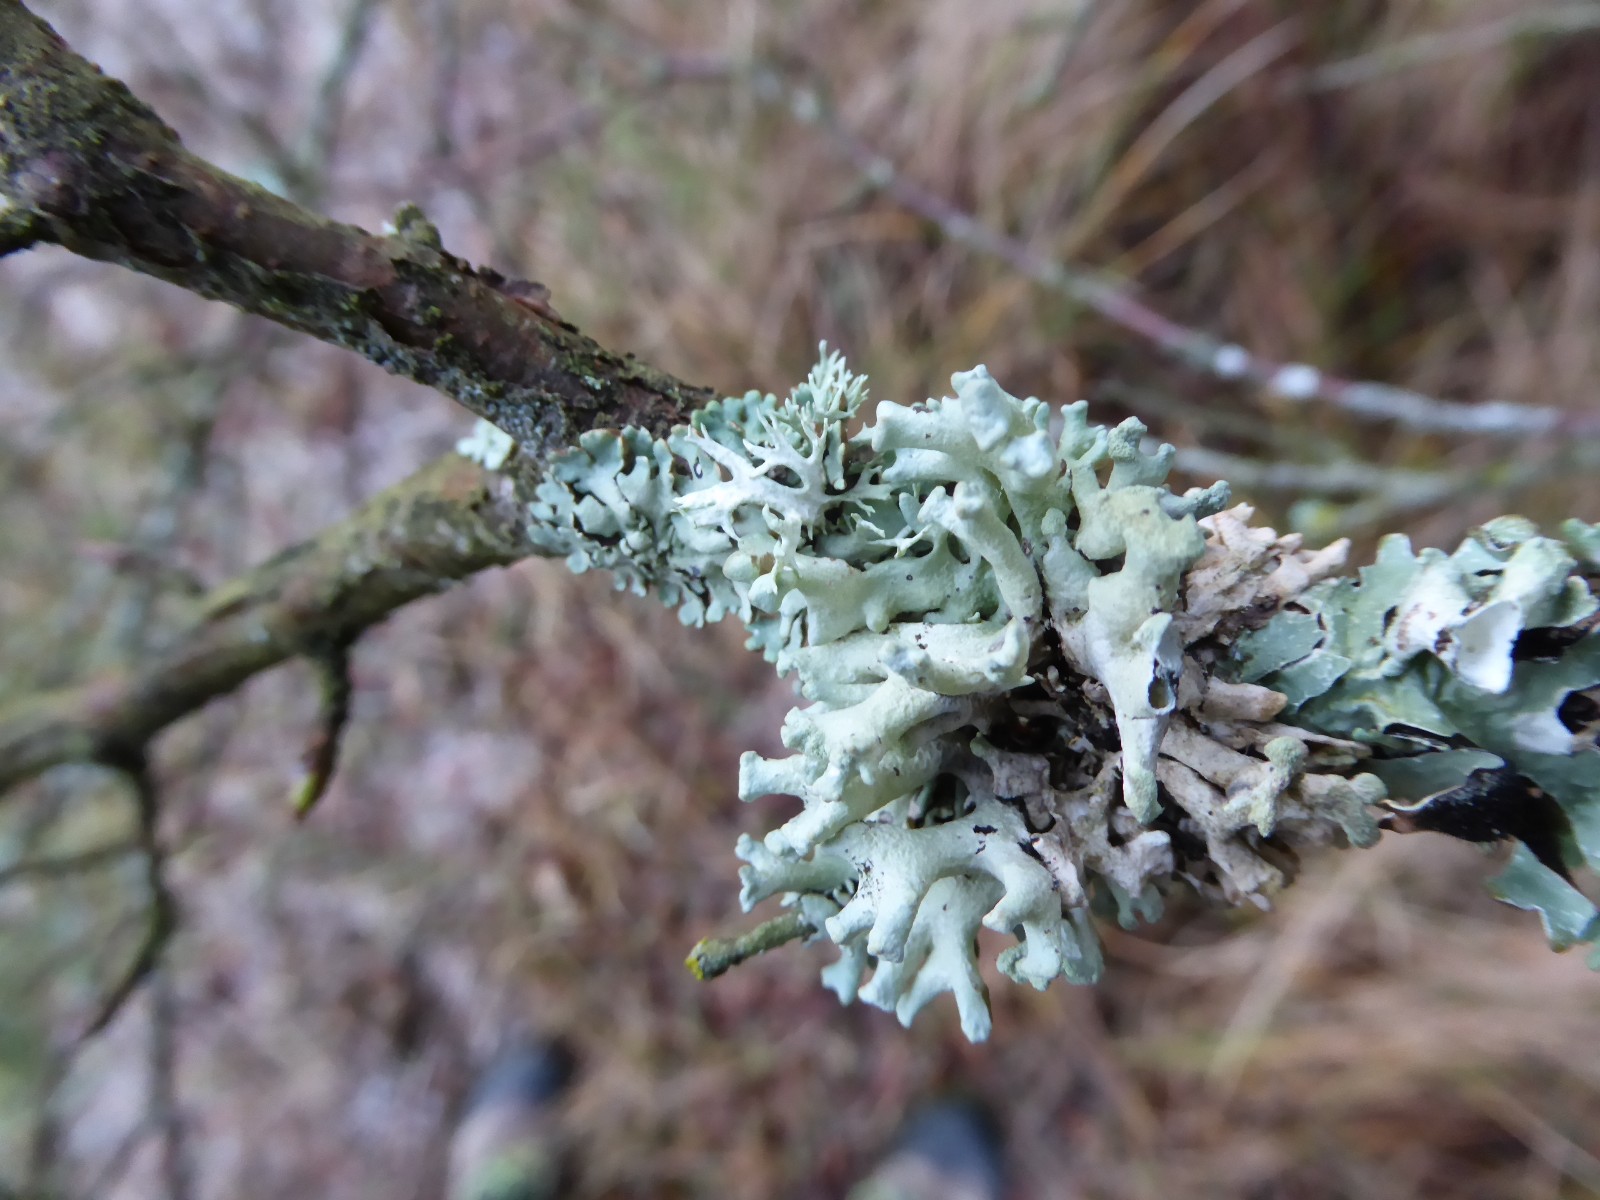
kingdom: Fungi
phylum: Ascomycota
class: Lecanoromycetes
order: Lecanorales
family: Parmeliaceae
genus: Hypogymnia
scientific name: Hypogymnia tubulosa
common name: finger-kvistlav
